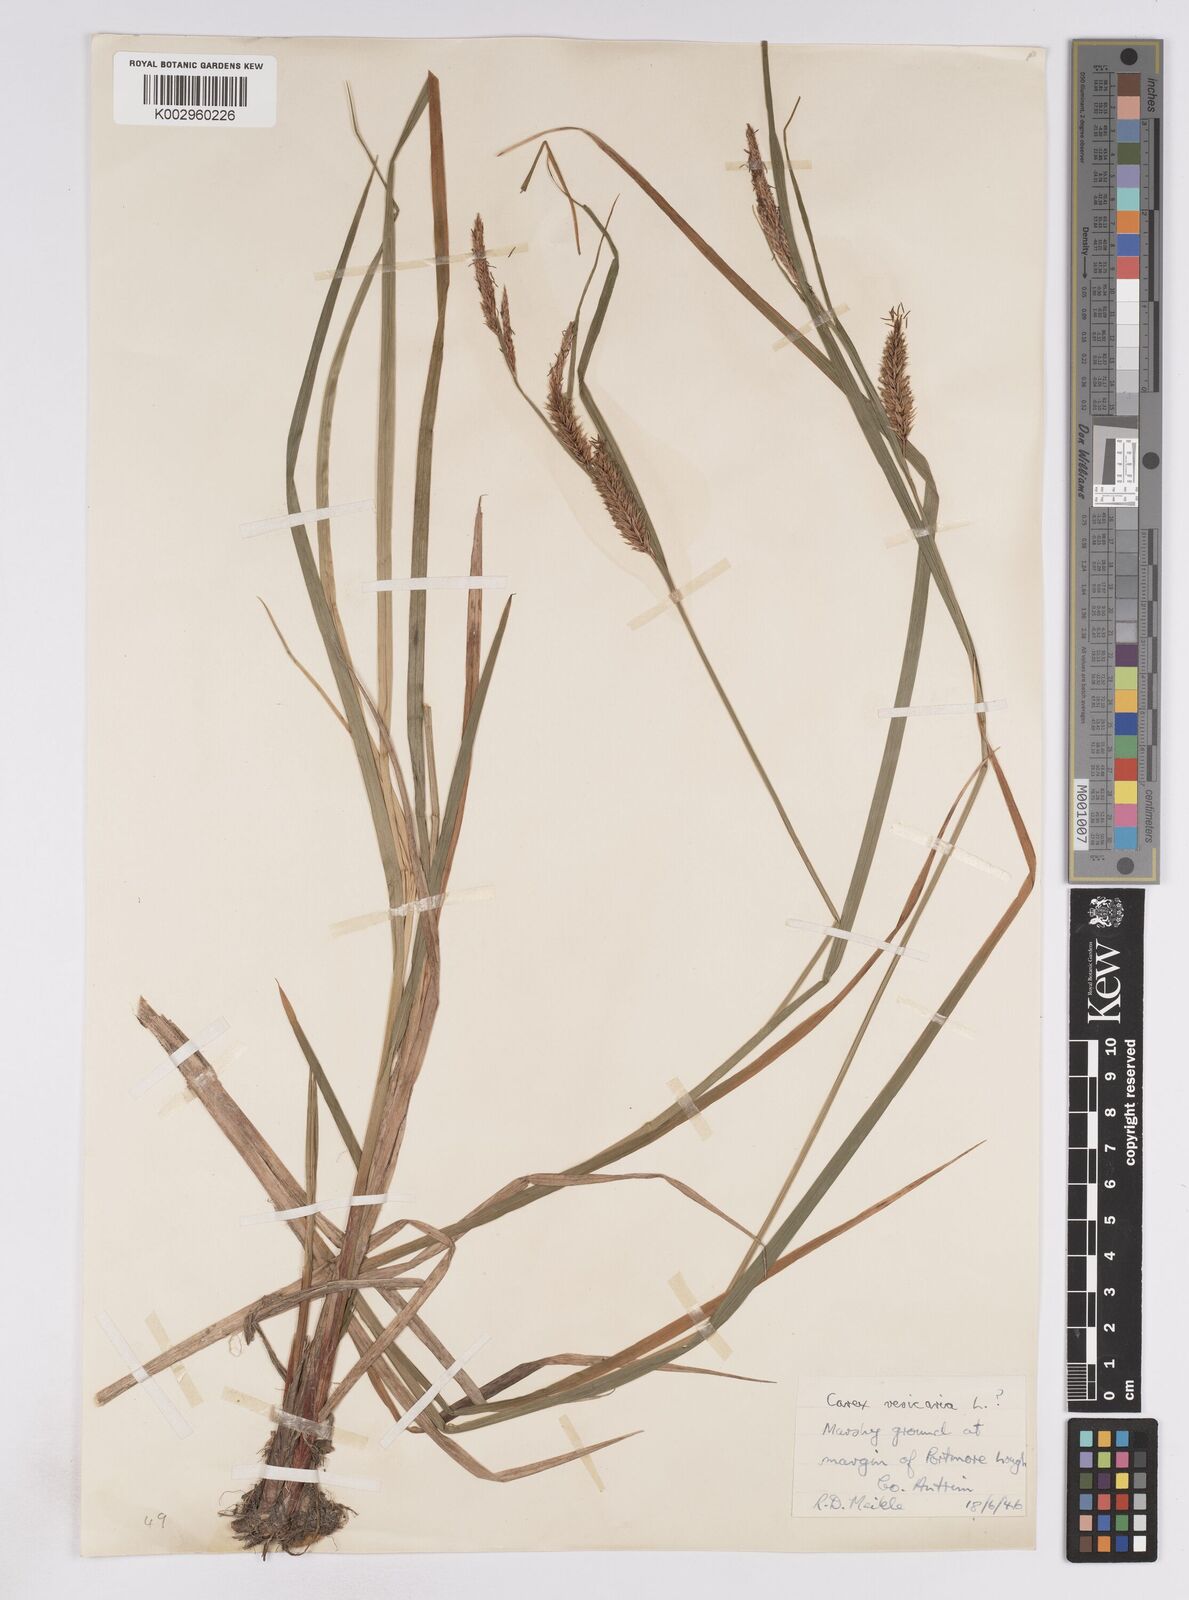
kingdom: Plantae
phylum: Tracheophyta
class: Liliopsida
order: Poales
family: Cyperaceae
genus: Carex
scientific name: Carex vesicaria
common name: Bladder-sedge
